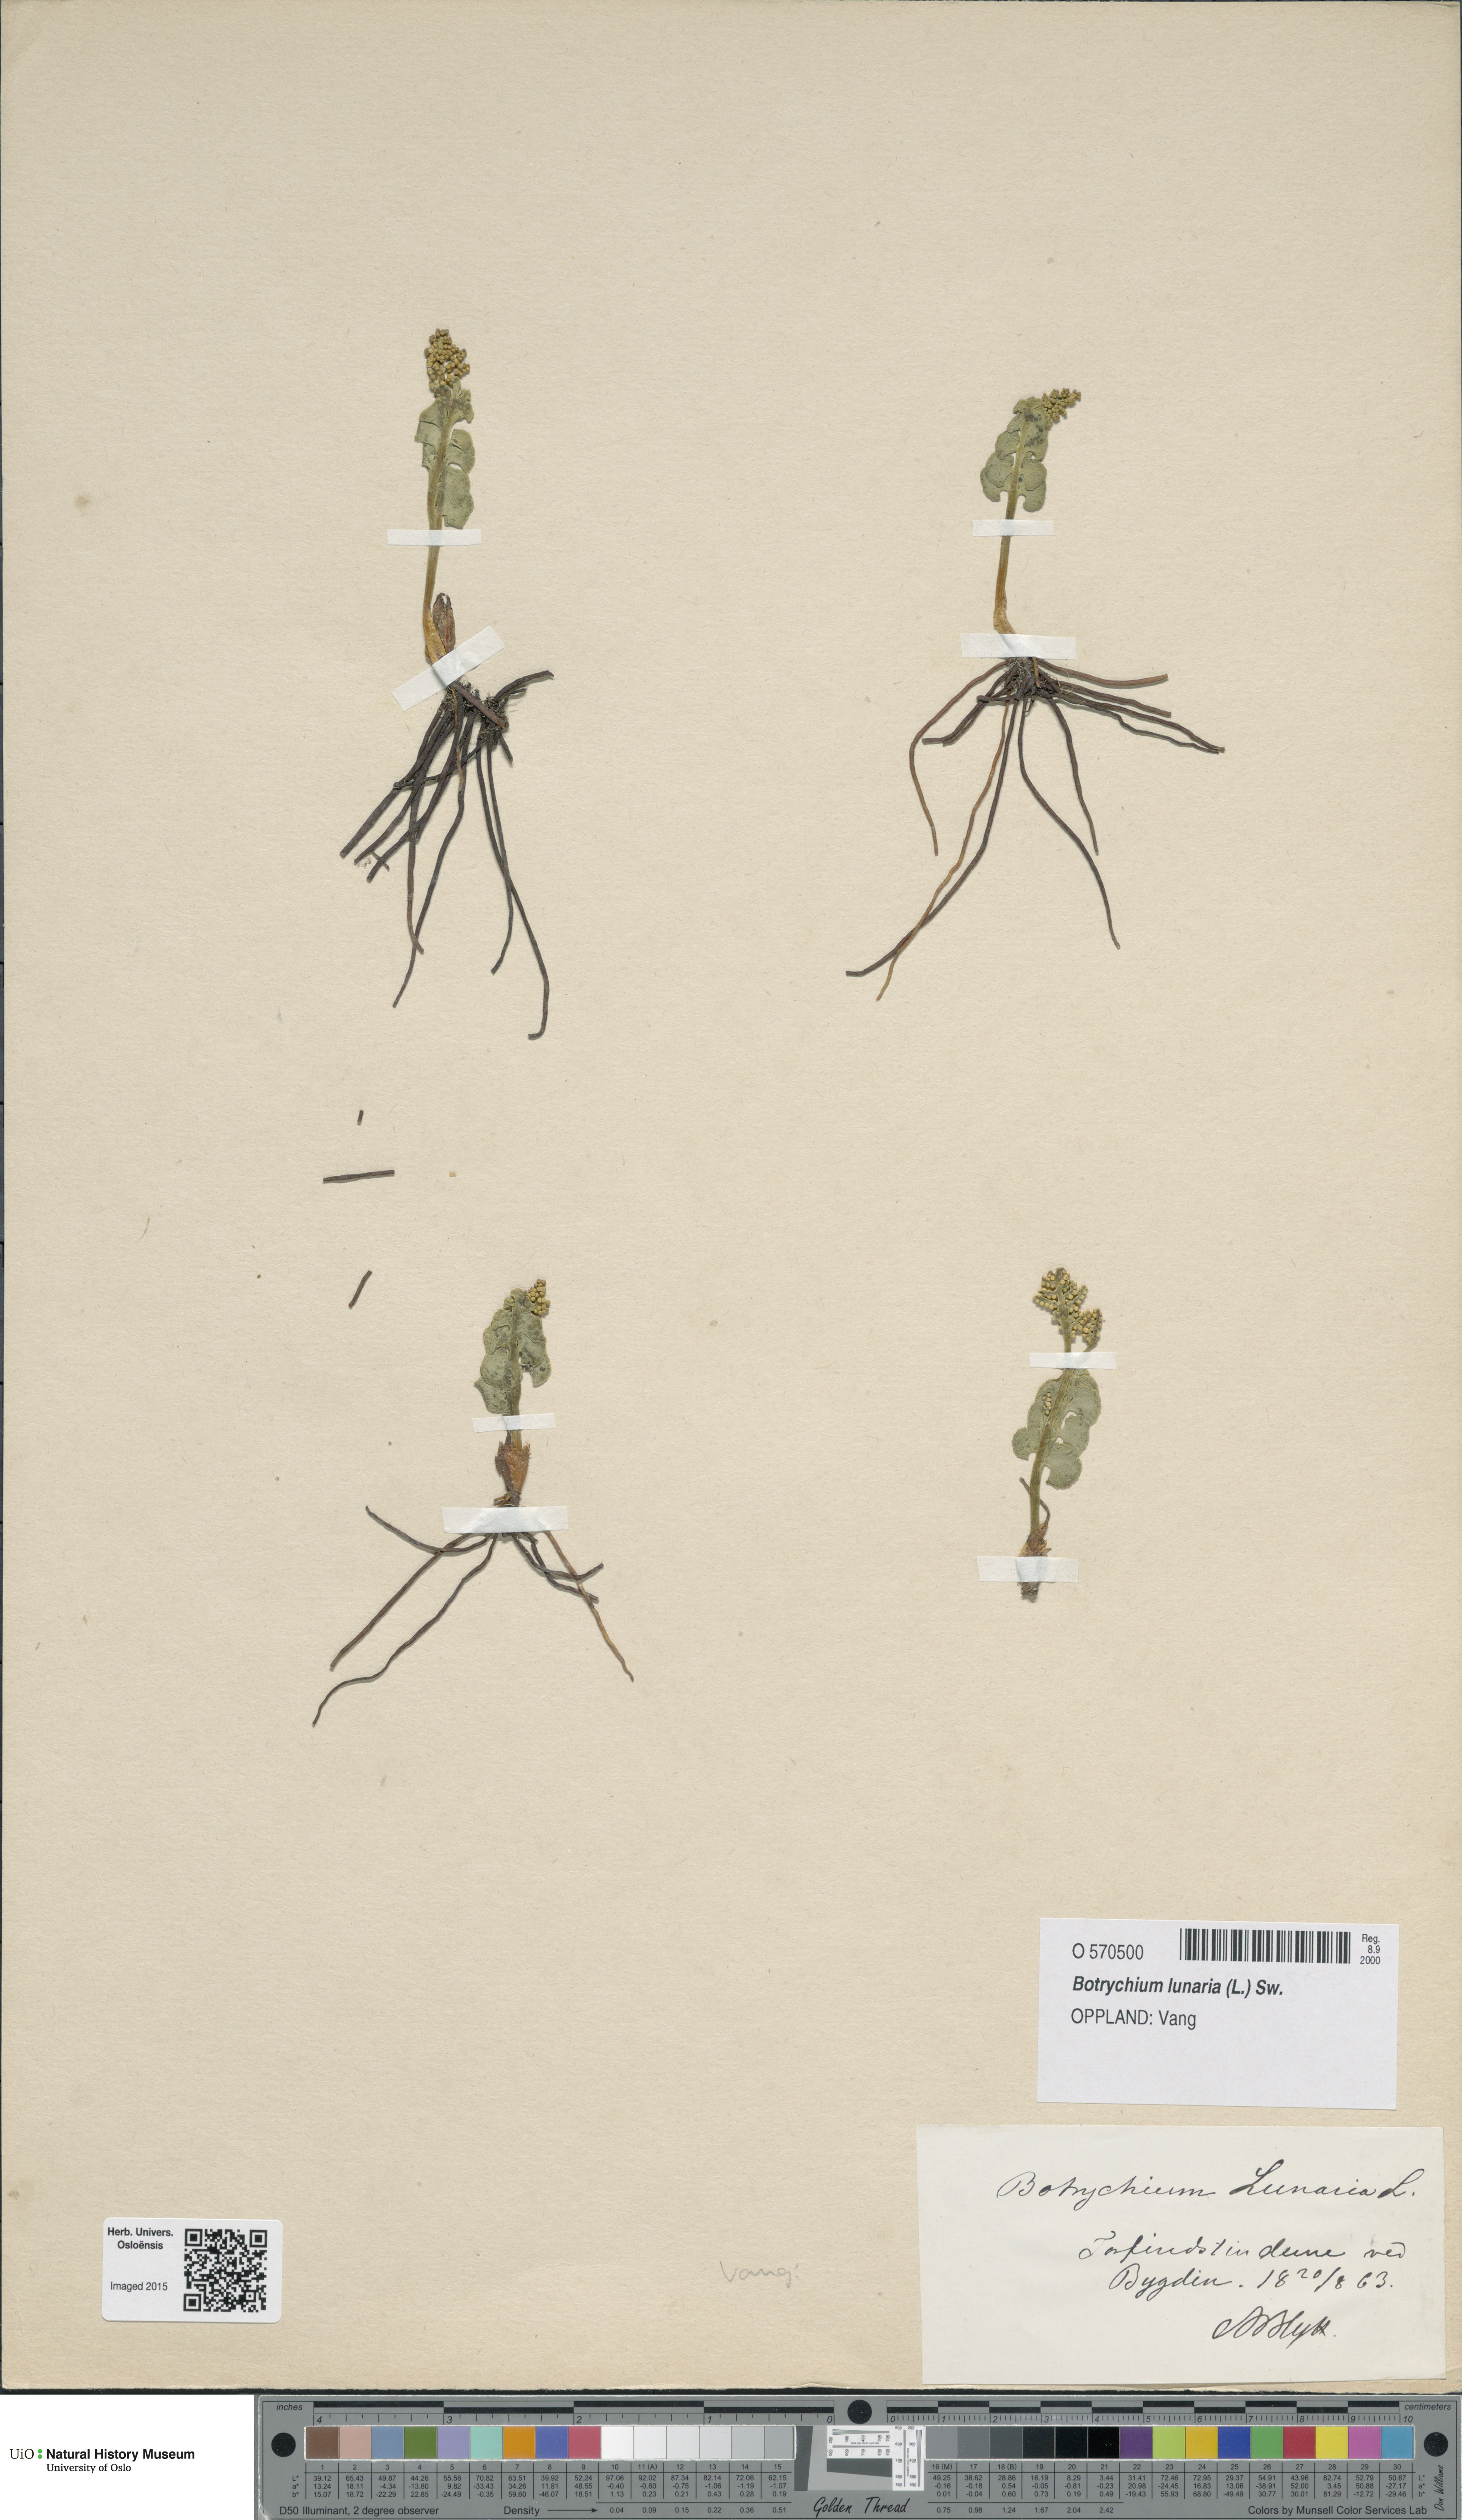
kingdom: Plantae
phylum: Tracheophyta
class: Polypodiopsida
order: Ophioglossales
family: Ophioglossaceae
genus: Botrychium
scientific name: Botrychium lunaria
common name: Moonwort
